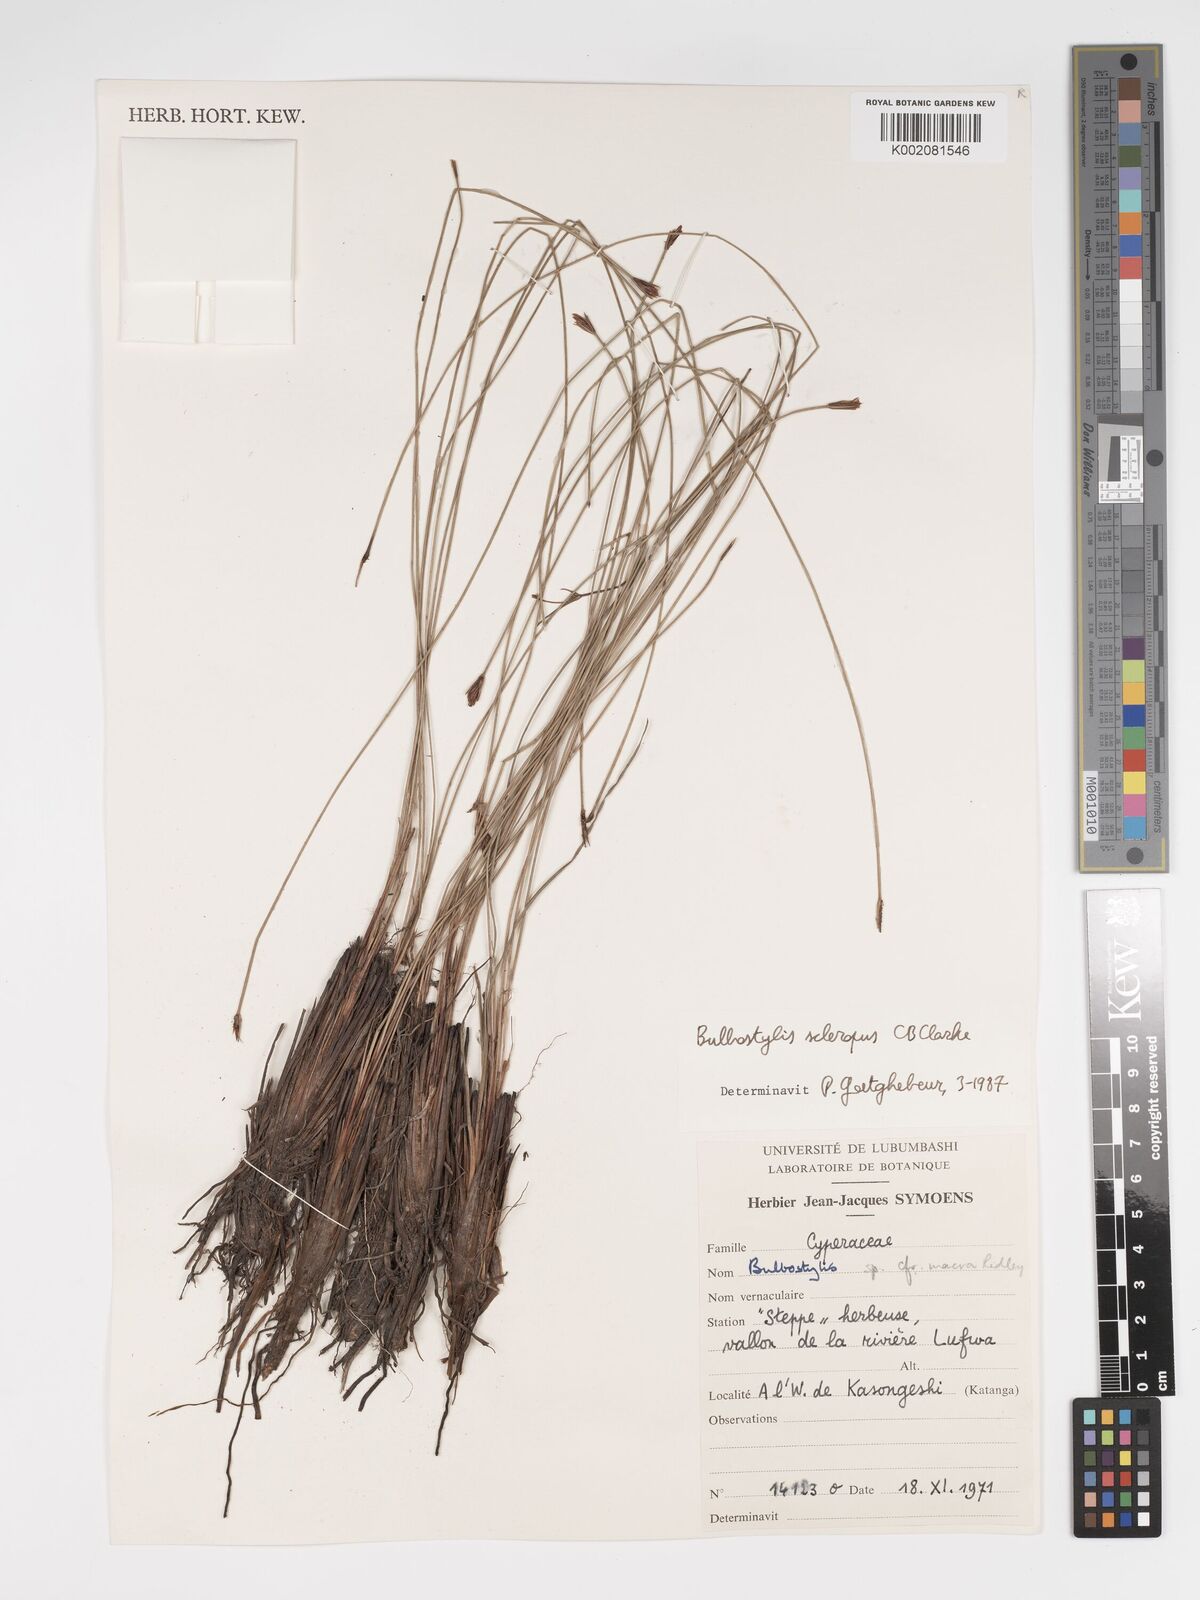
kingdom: Plantae
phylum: Tracheophyta
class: Liliopsida
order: Poales
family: Cyperaceae
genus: Bulbostylis
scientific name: Bulbostylis schoenoides
